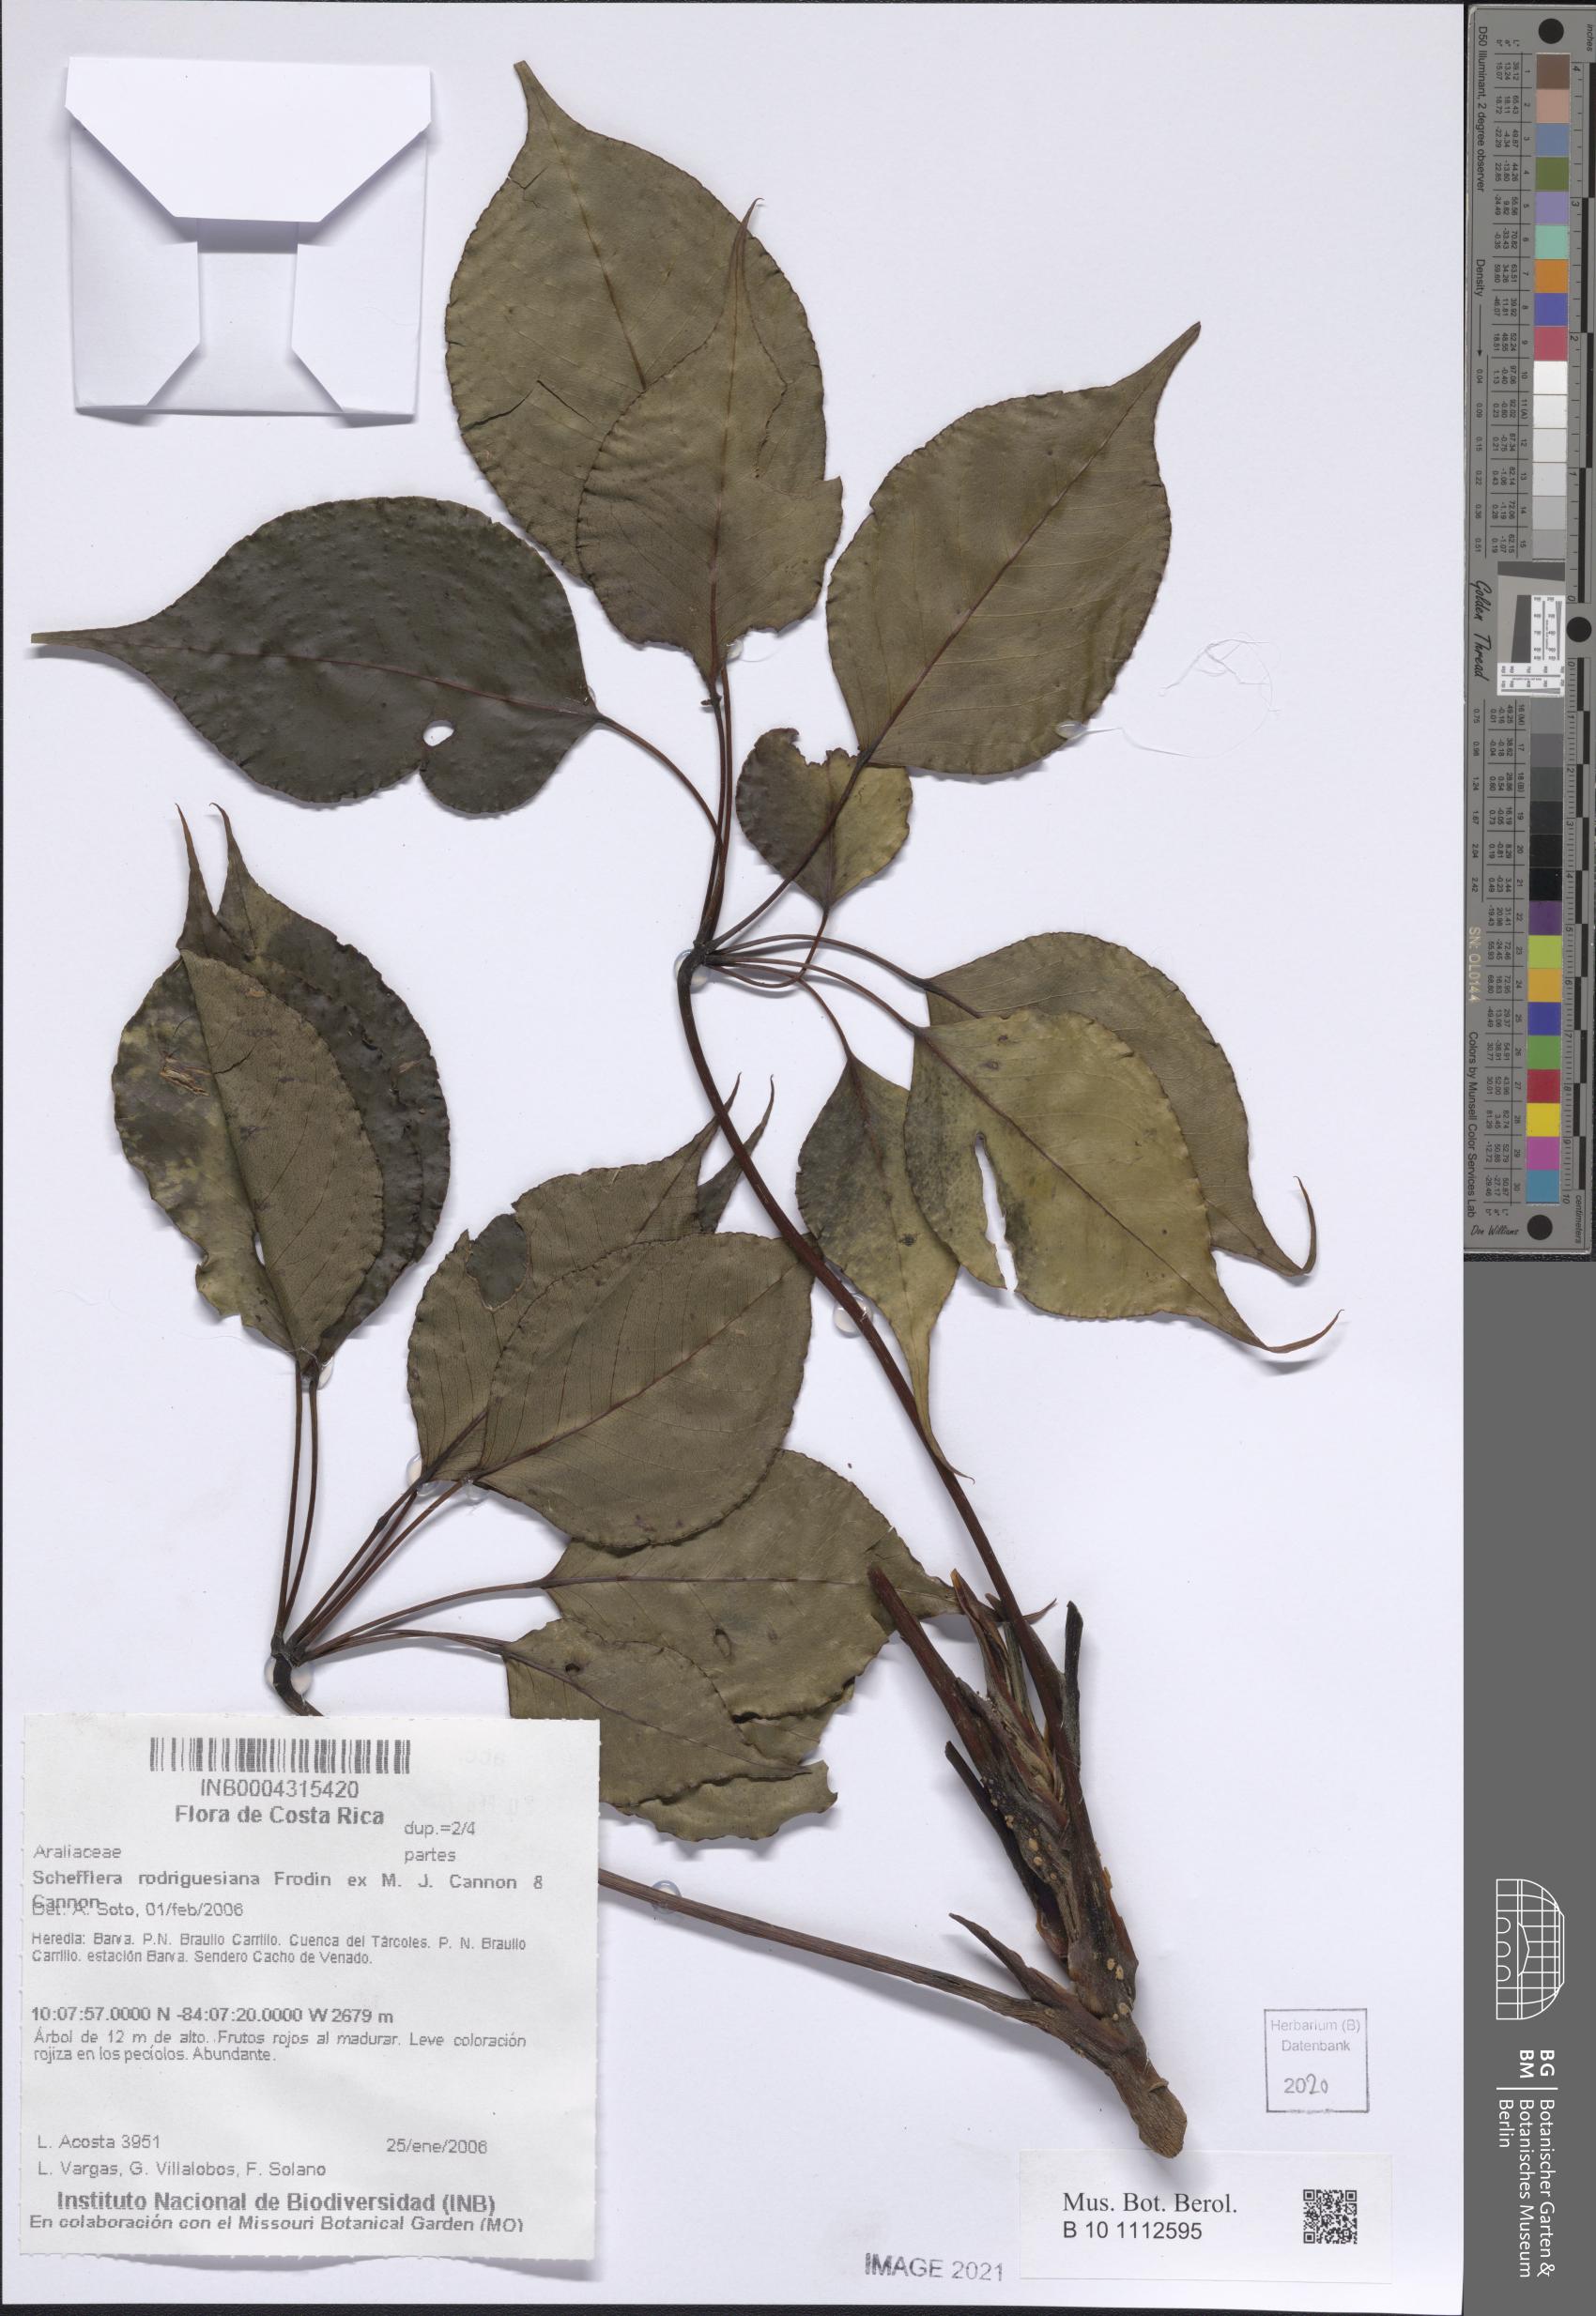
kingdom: Plantae
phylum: Tracheophyta
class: Magnoliopsida
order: Apiales
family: Araliaceae
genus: Sciodaphyllum
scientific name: Sciodaphyllum pittieri
